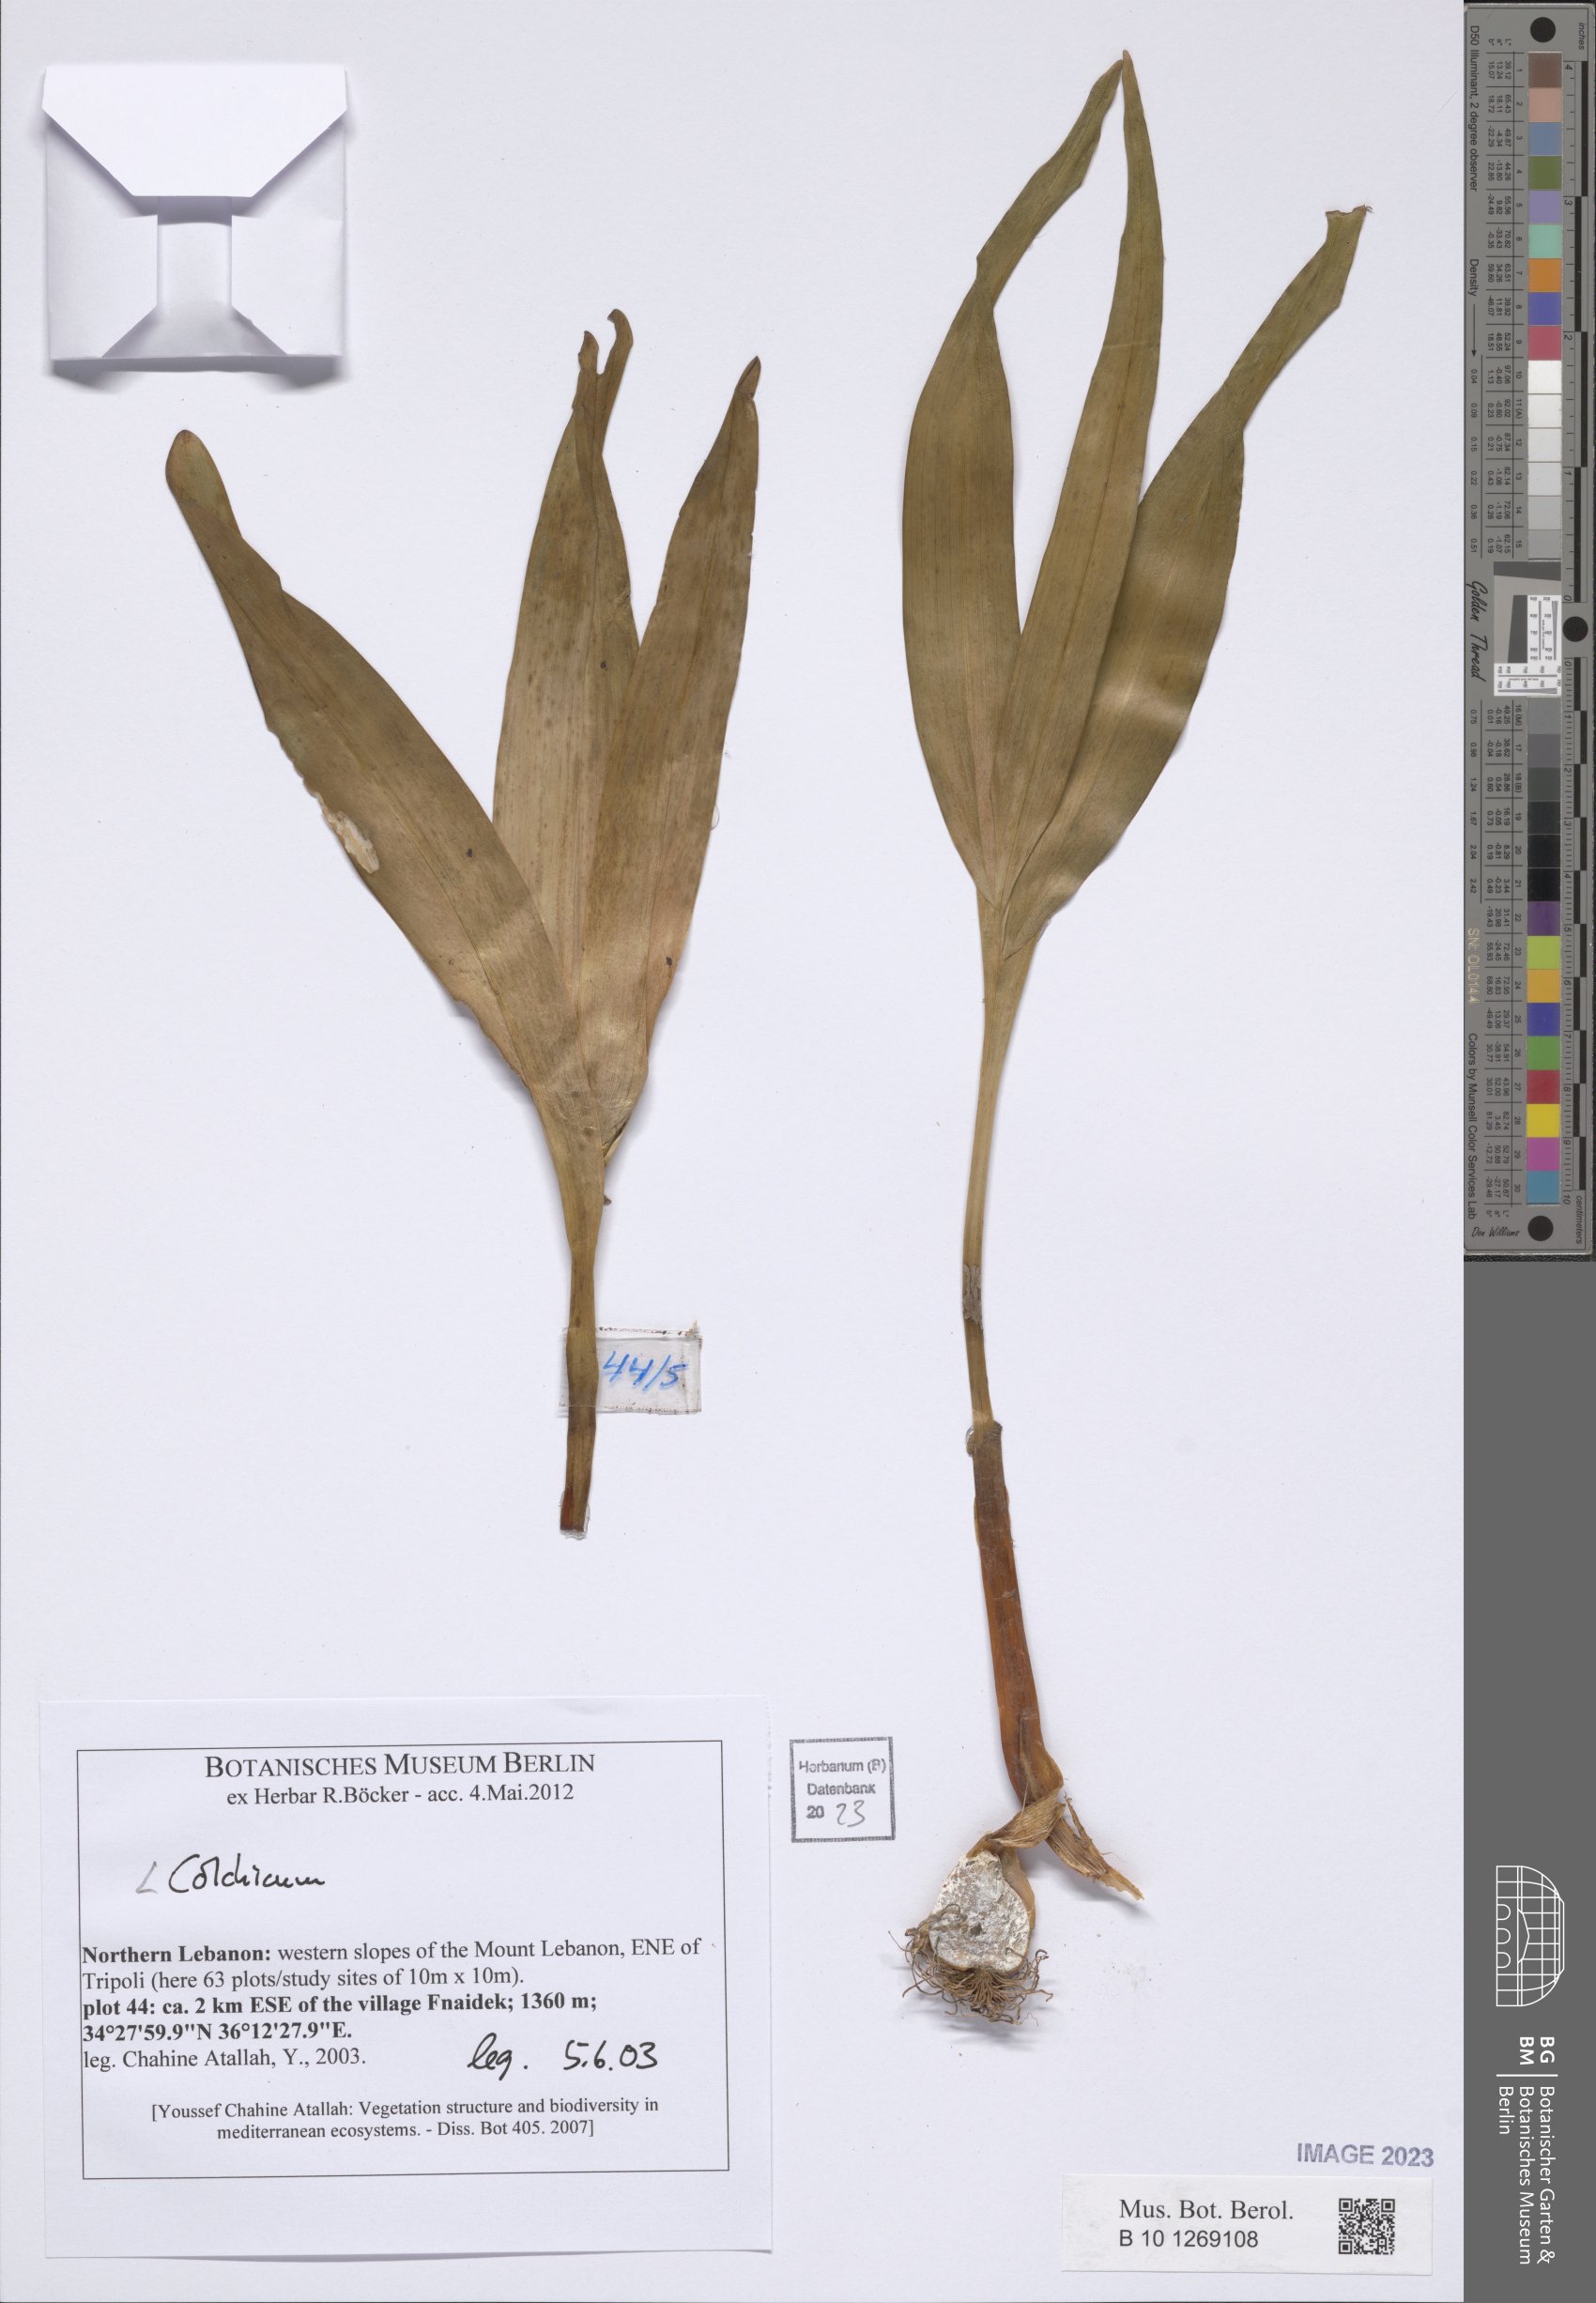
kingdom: Plantae
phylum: Tracheophyta
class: Liliopsida
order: Liliales
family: Colchicaceae
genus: Colchicum
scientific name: Colchicum
